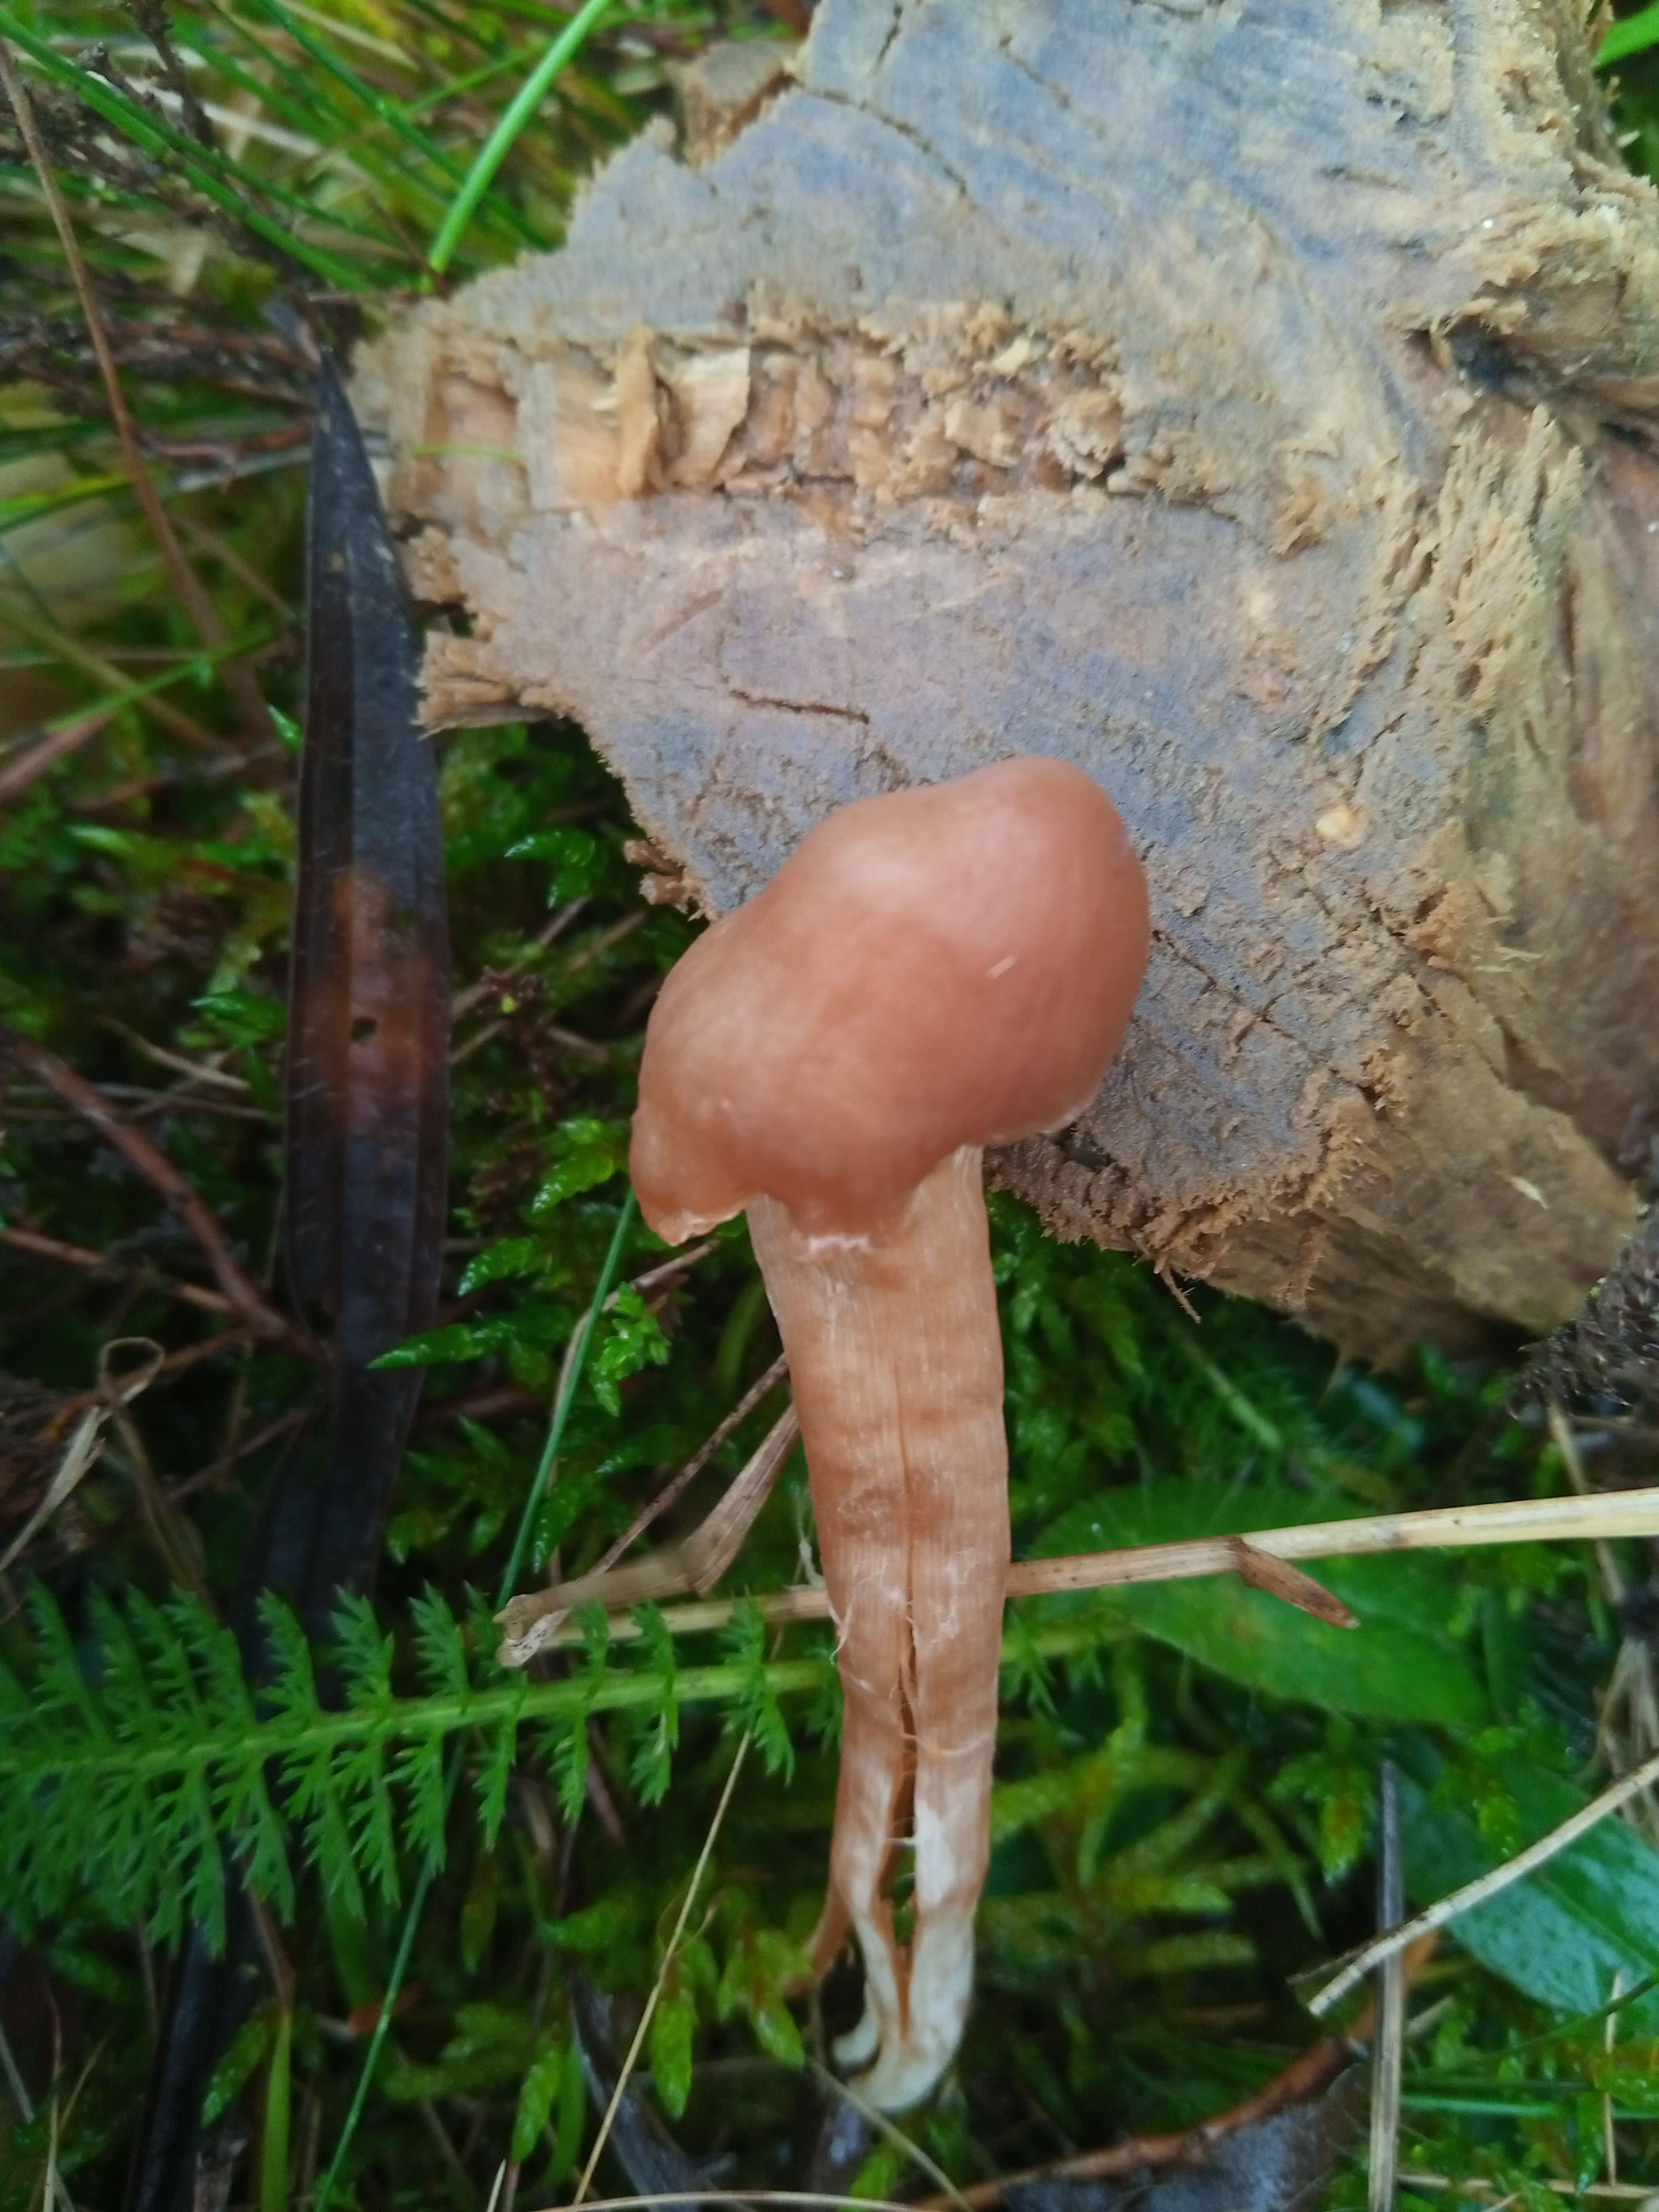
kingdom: Fungi
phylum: Basidiomycota
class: Agaricomycetes
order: Agaricales
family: Cortinariaceae
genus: Cortinarius
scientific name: Cortinarius
